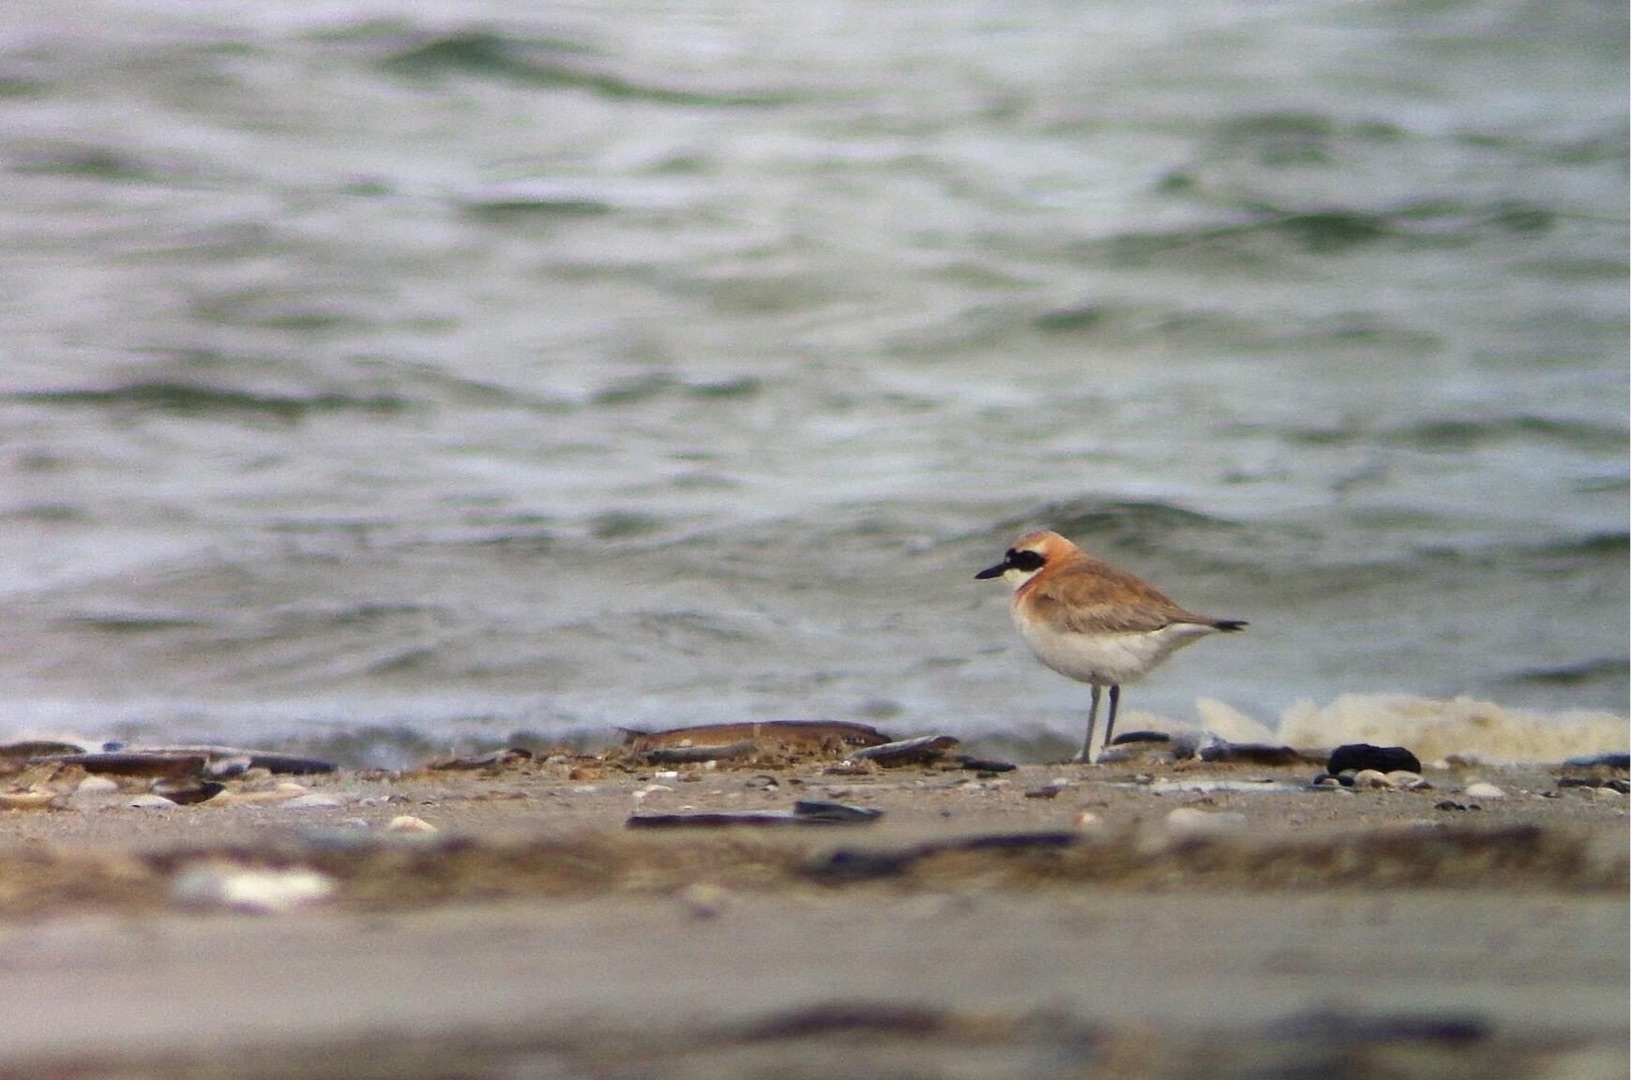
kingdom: Animalia
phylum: Chordata
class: Aves
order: Charadriiformes
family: Charadriidae
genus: Charadrius
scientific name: Charadrius leschenaultii
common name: Ørkenpræstekrave
